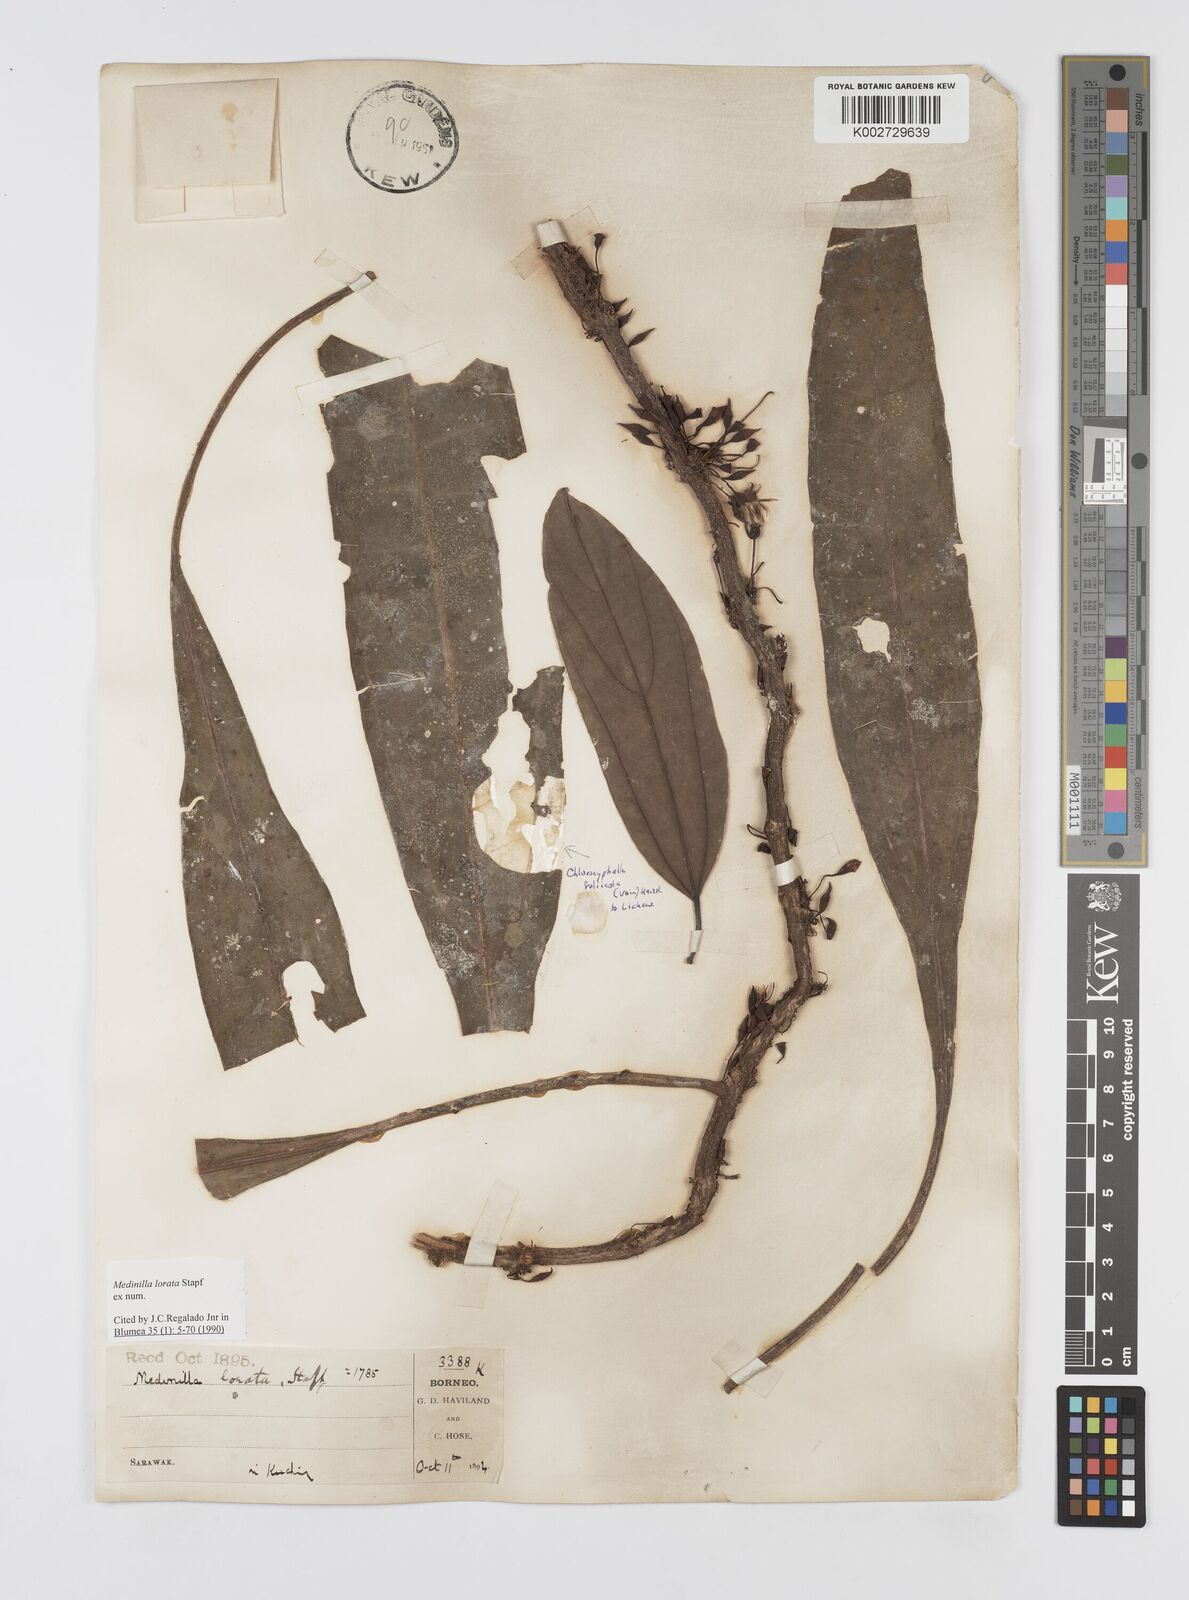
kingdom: Plantae
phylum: Tracheophyta
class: Magnoliopsida
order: Myrtales
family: Melastomataceae
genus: Heteroblemma
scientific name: Heteroblemma loratum
